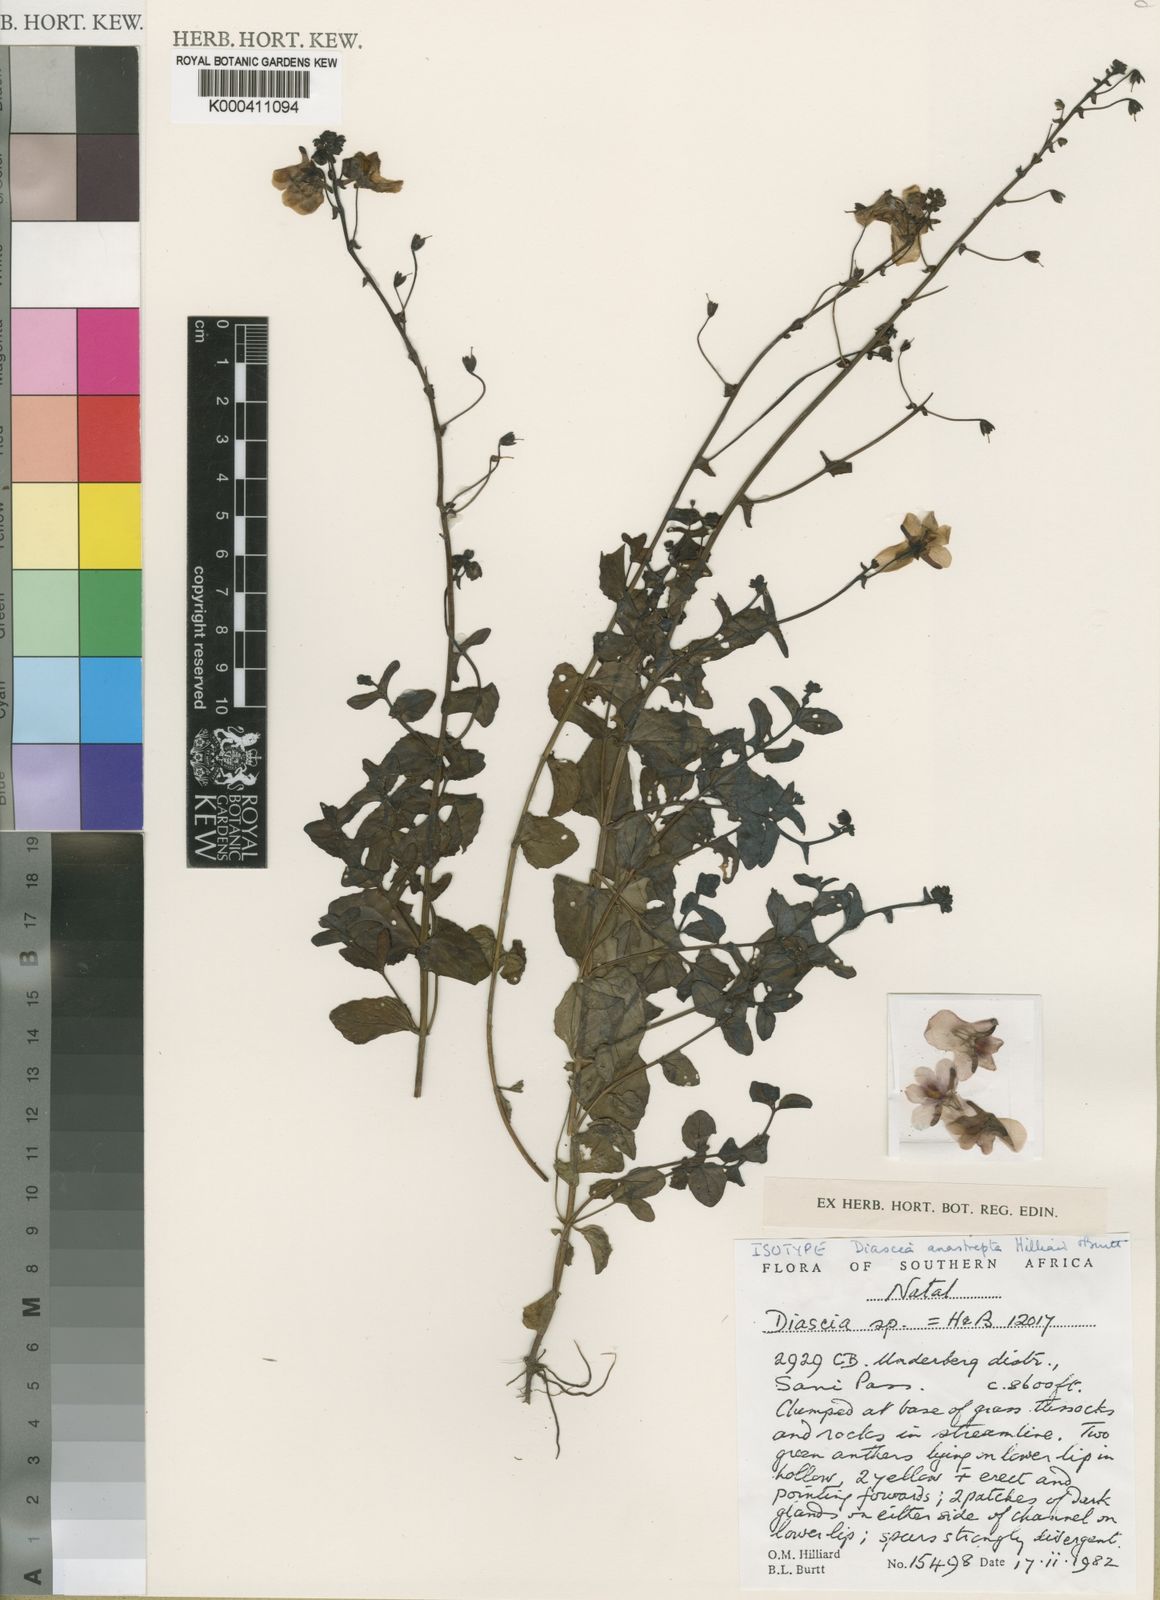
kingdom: Plantae
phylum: Tracheophyta
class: Magnoliopsida
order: Lamiales
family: Scrophulariaceae
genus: Diascia
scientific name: Diascia anastrepta
